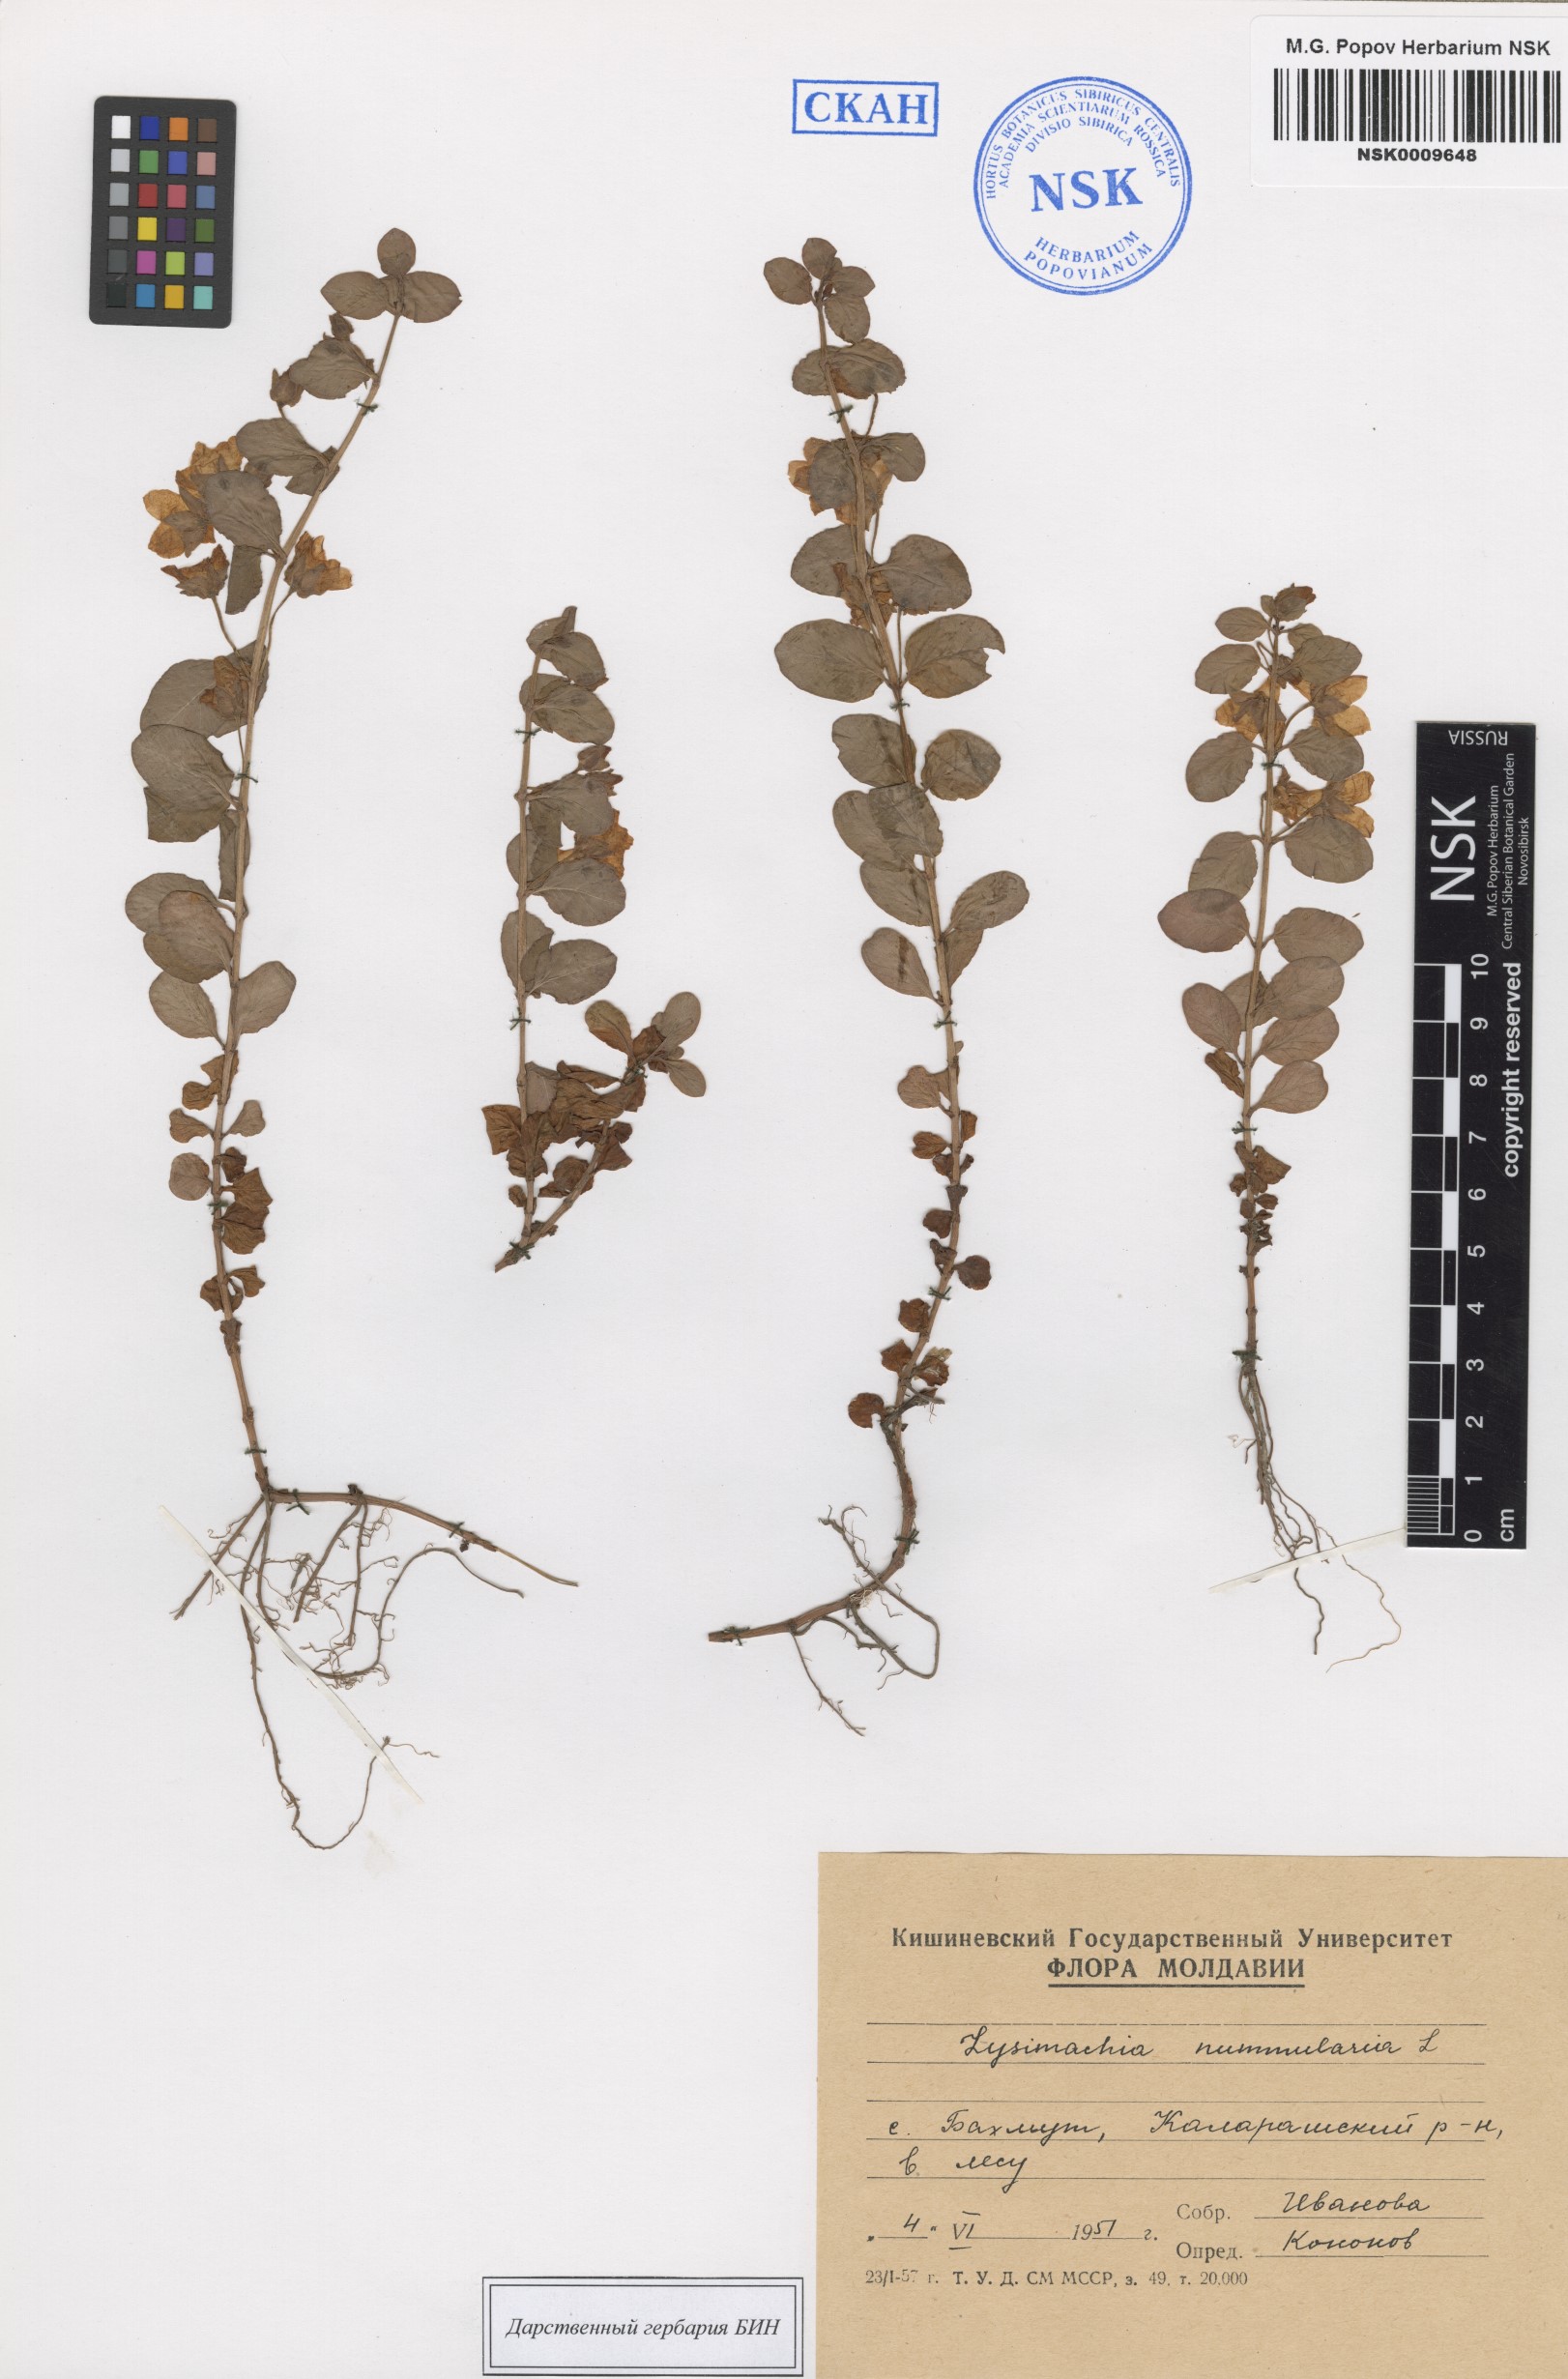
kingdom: Plantae
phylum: Tracheophyta
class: Magnoliopsida
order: Ericales
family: Primulaceae
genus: Lysimachia
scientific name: Lysimachia nummularia
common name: Moneywort
